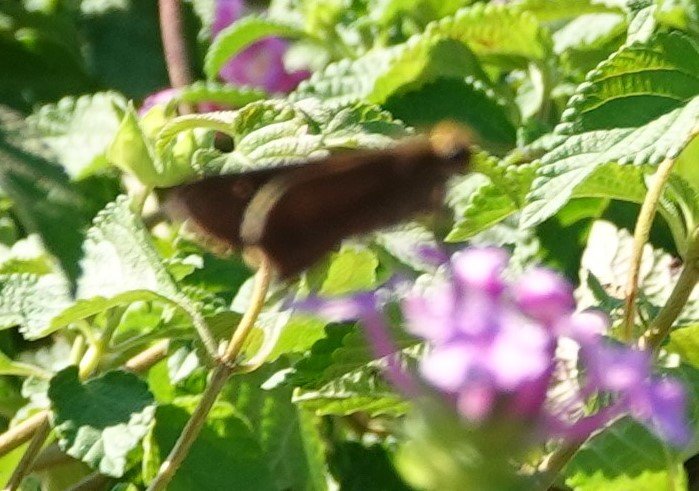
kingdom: Animalia
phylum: Arthropoda
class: Insecta
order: Lepidoptera
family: Hesperiidae
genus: Panoquina
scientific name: Panoquina ocola
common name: Ocola Skipper
